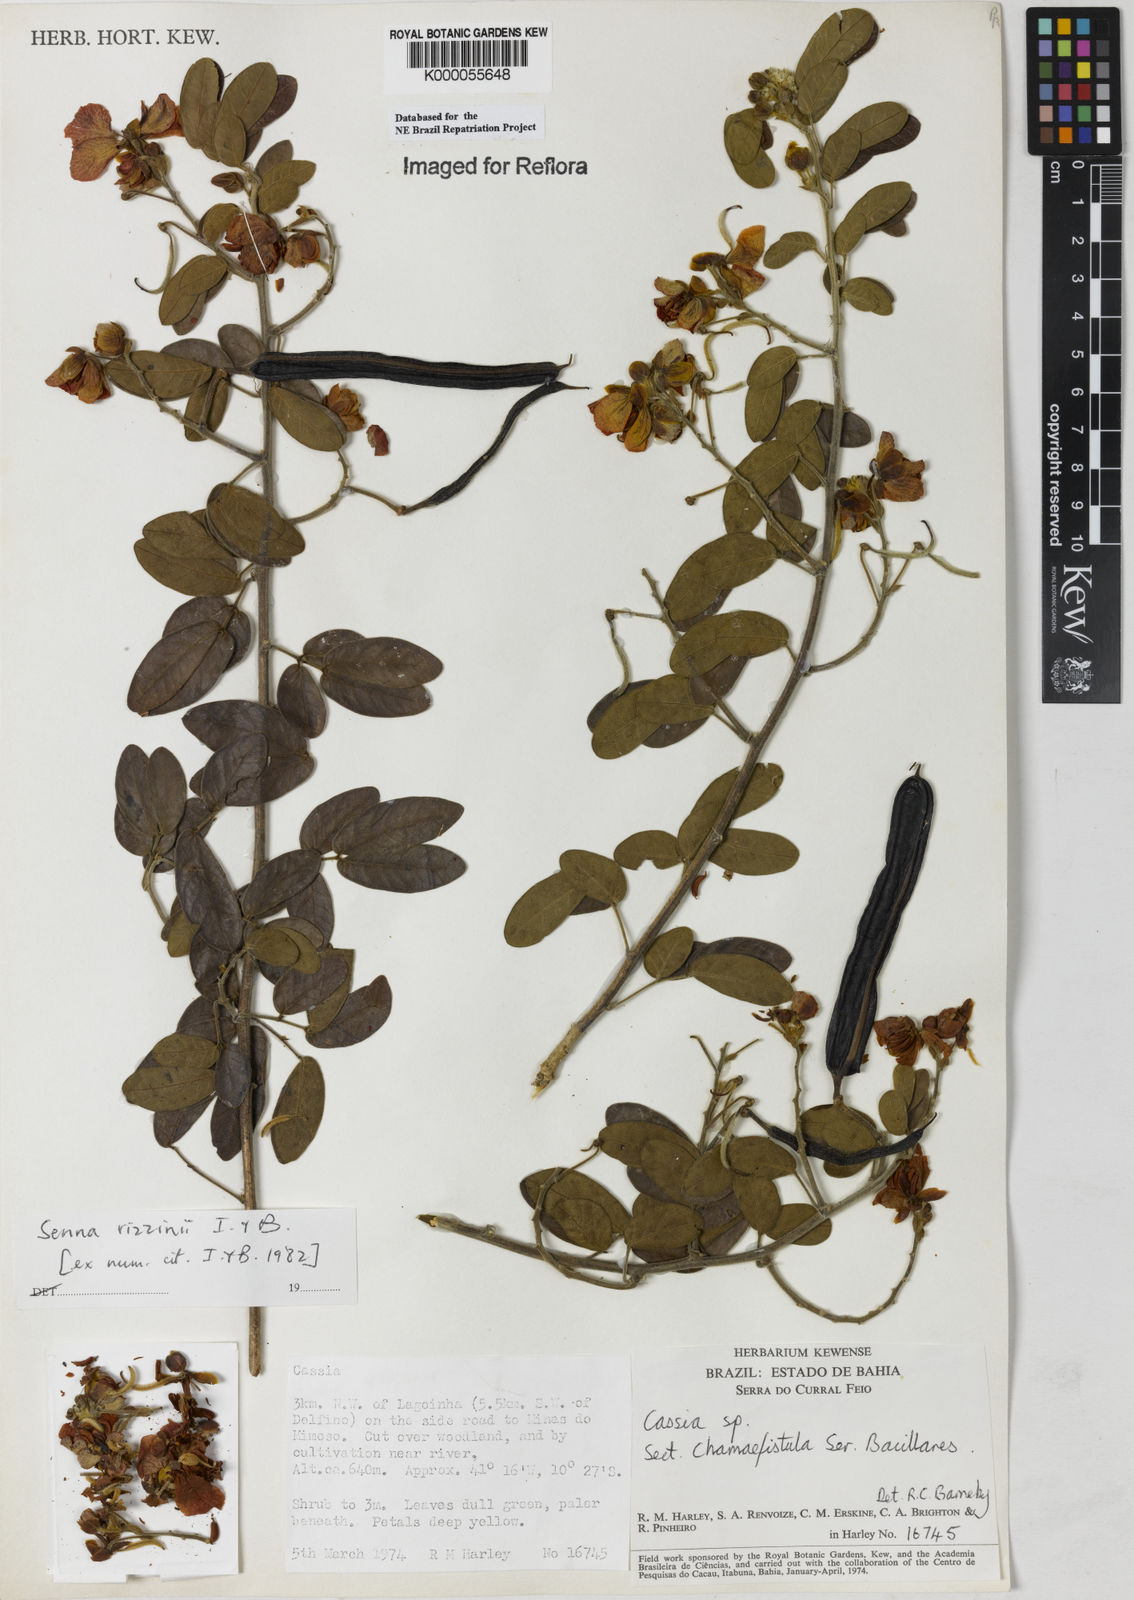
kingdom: Plantae
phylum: Tracheophyta
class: Magnoliopsida
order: Fabales
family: Fabaceae
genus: Senna
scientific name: Senna rizzinii
